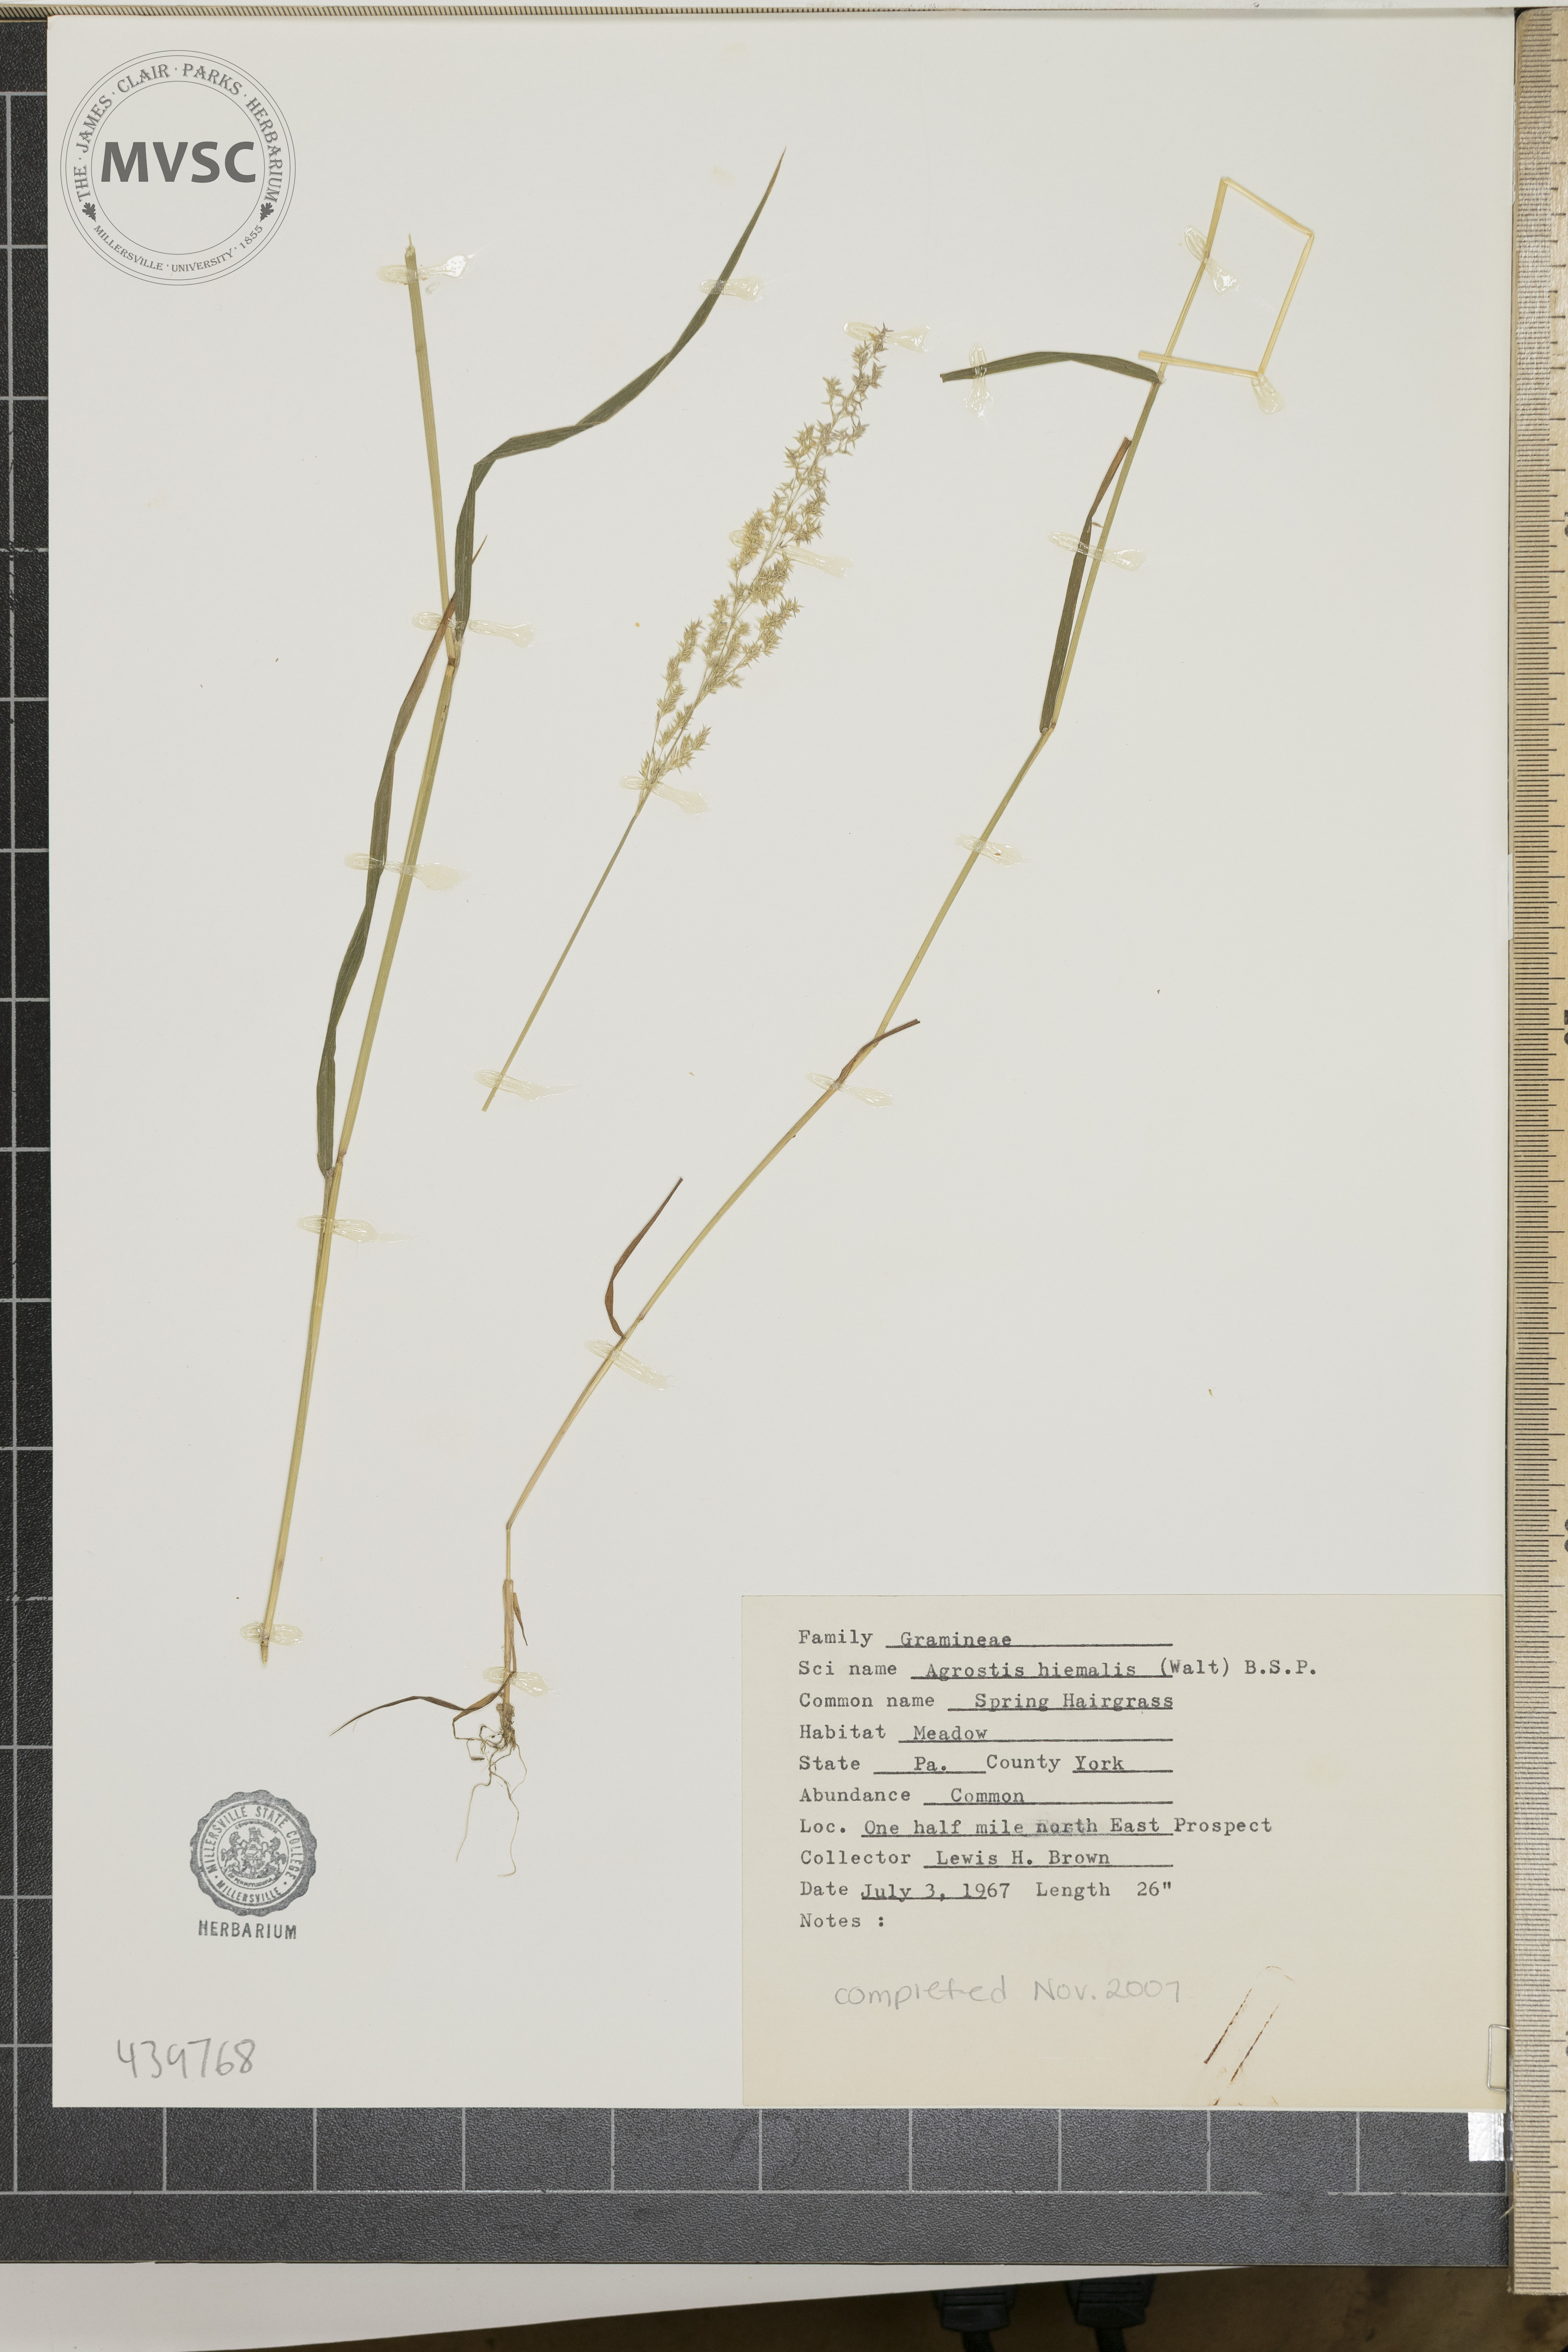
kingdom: Plantae
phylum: Tracheophyta
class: Liliopsida
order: Poales
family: Poaceae
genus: Agrostis
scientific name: Agrostis hyemalis
